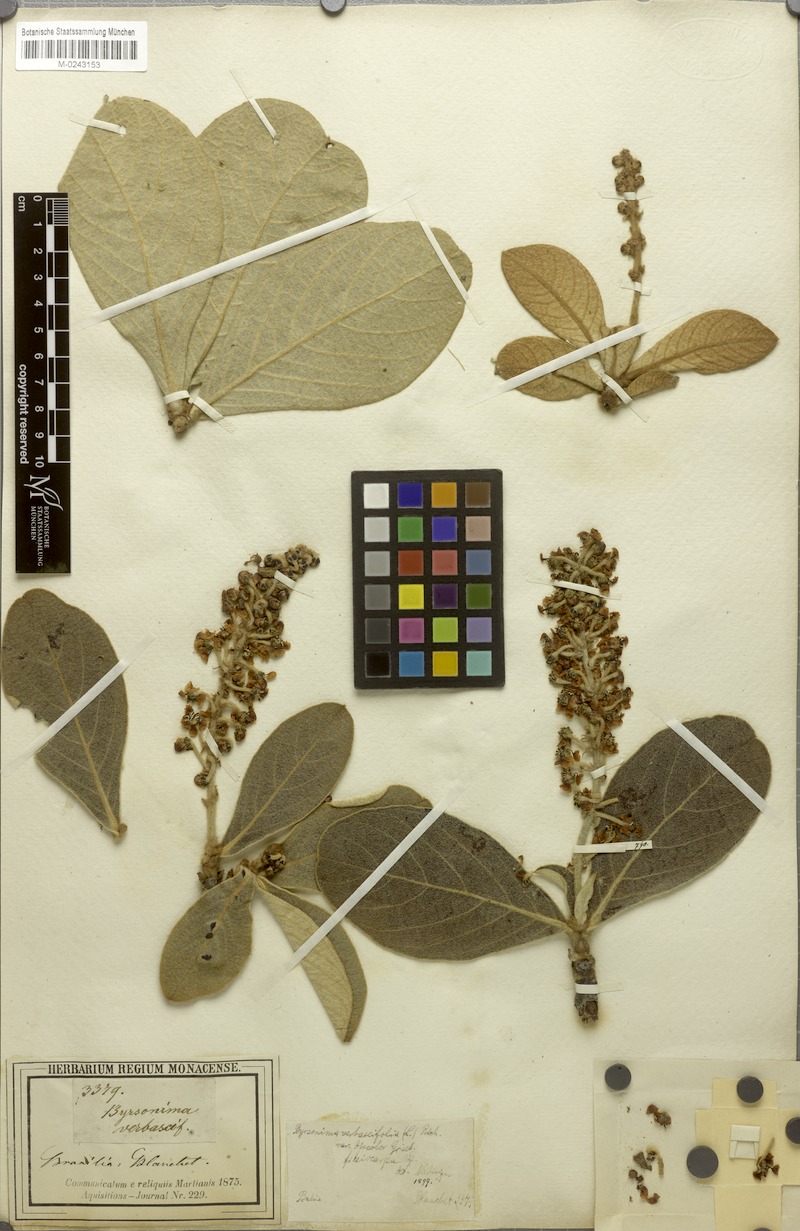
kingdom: Plantae
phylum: Tracheophyta
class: Magnoliopsida
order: Malpighiales
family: Malpighiaceae
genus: Byrsonima
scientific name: Byrsonima verbascifolia
